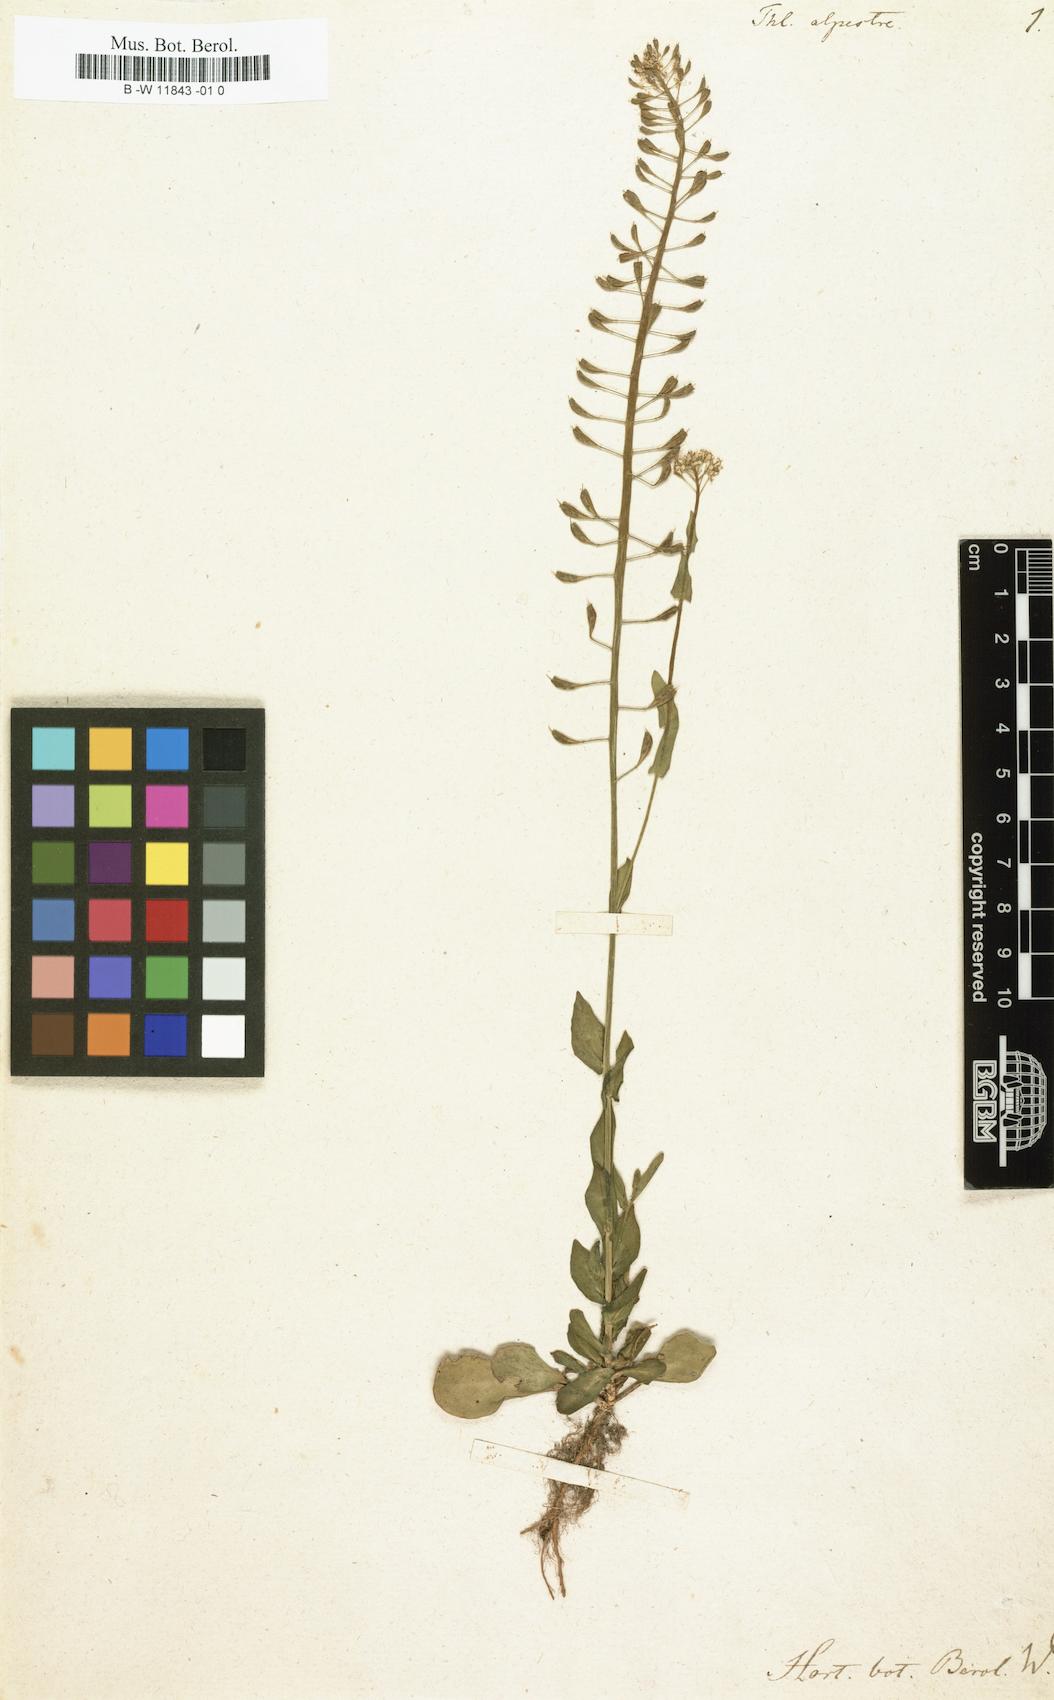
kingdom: Plantae
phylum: Tracheophyta
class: Magnoliopsida
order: Brassicales
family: Brassicaceae
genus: Thlaspi
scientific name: Thlaspi alpestre
